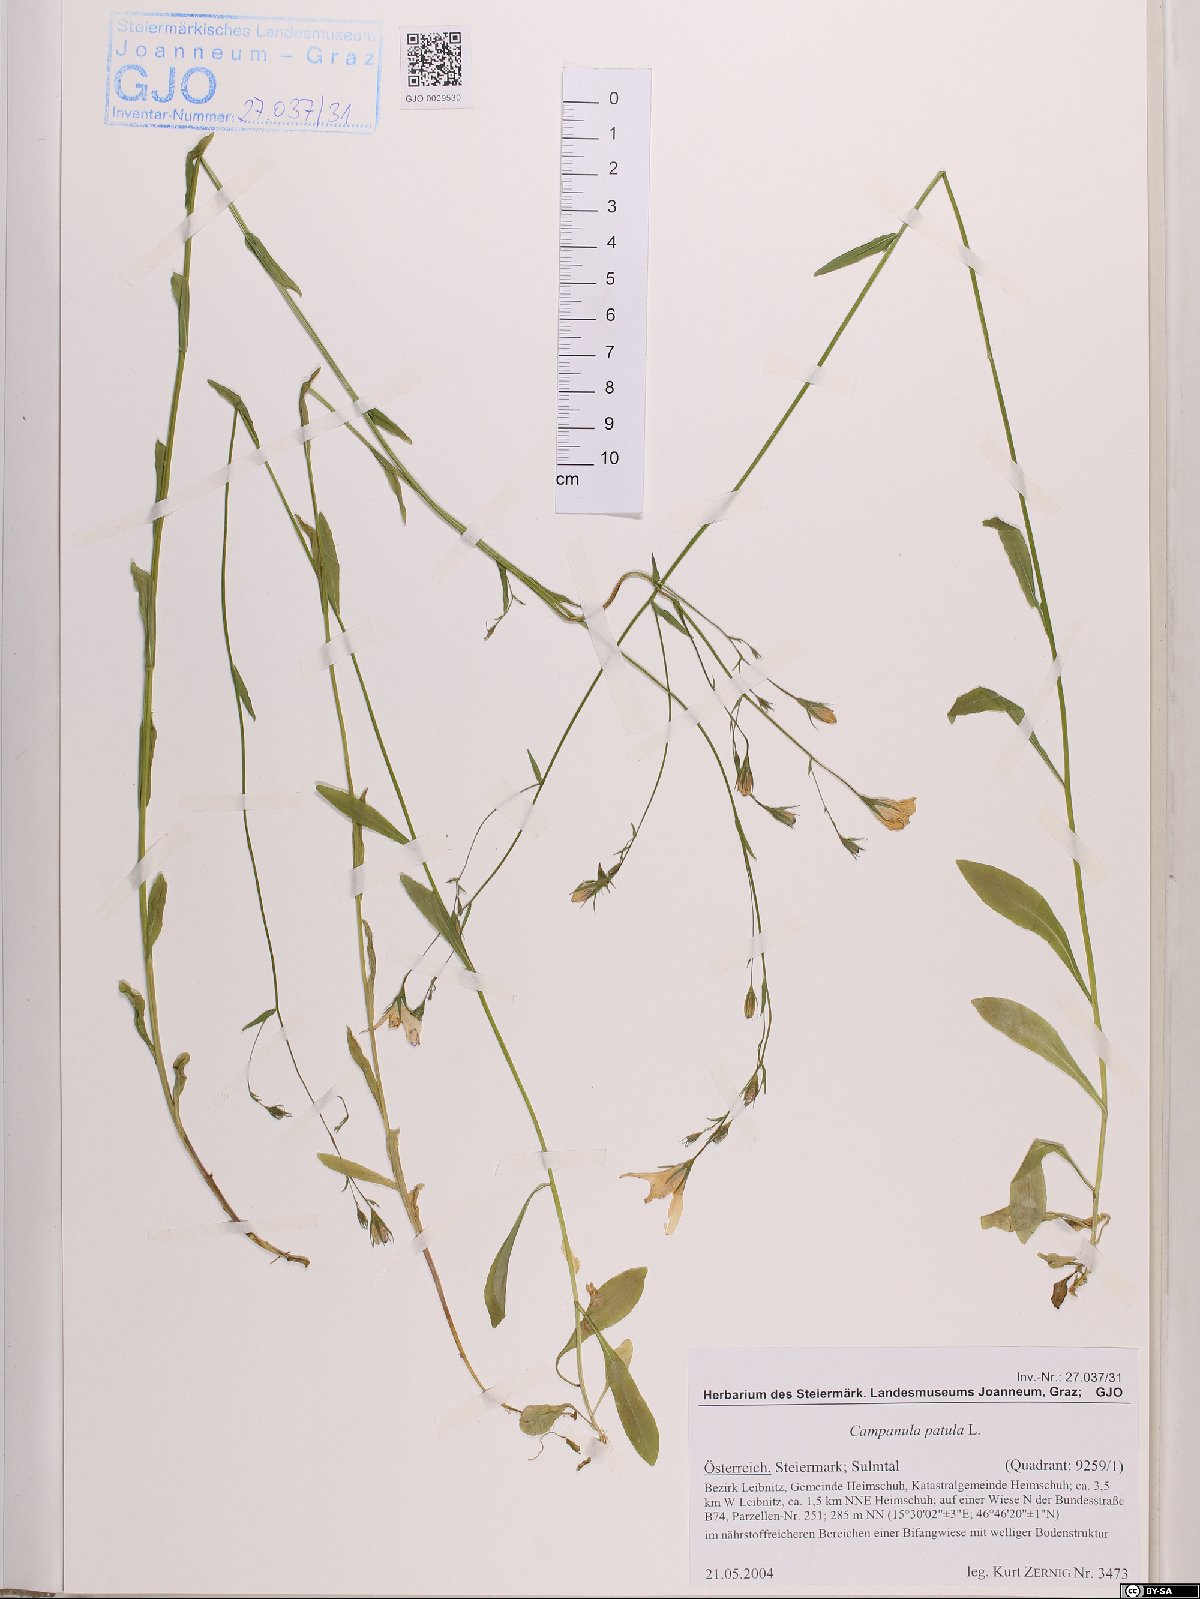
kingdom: Plantae
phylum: Tracheophyta
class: Magnoliopsida
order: Asterales
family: Campanulaceae
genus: Campanula
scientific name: Campanula patula
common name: Spreading bellflower
